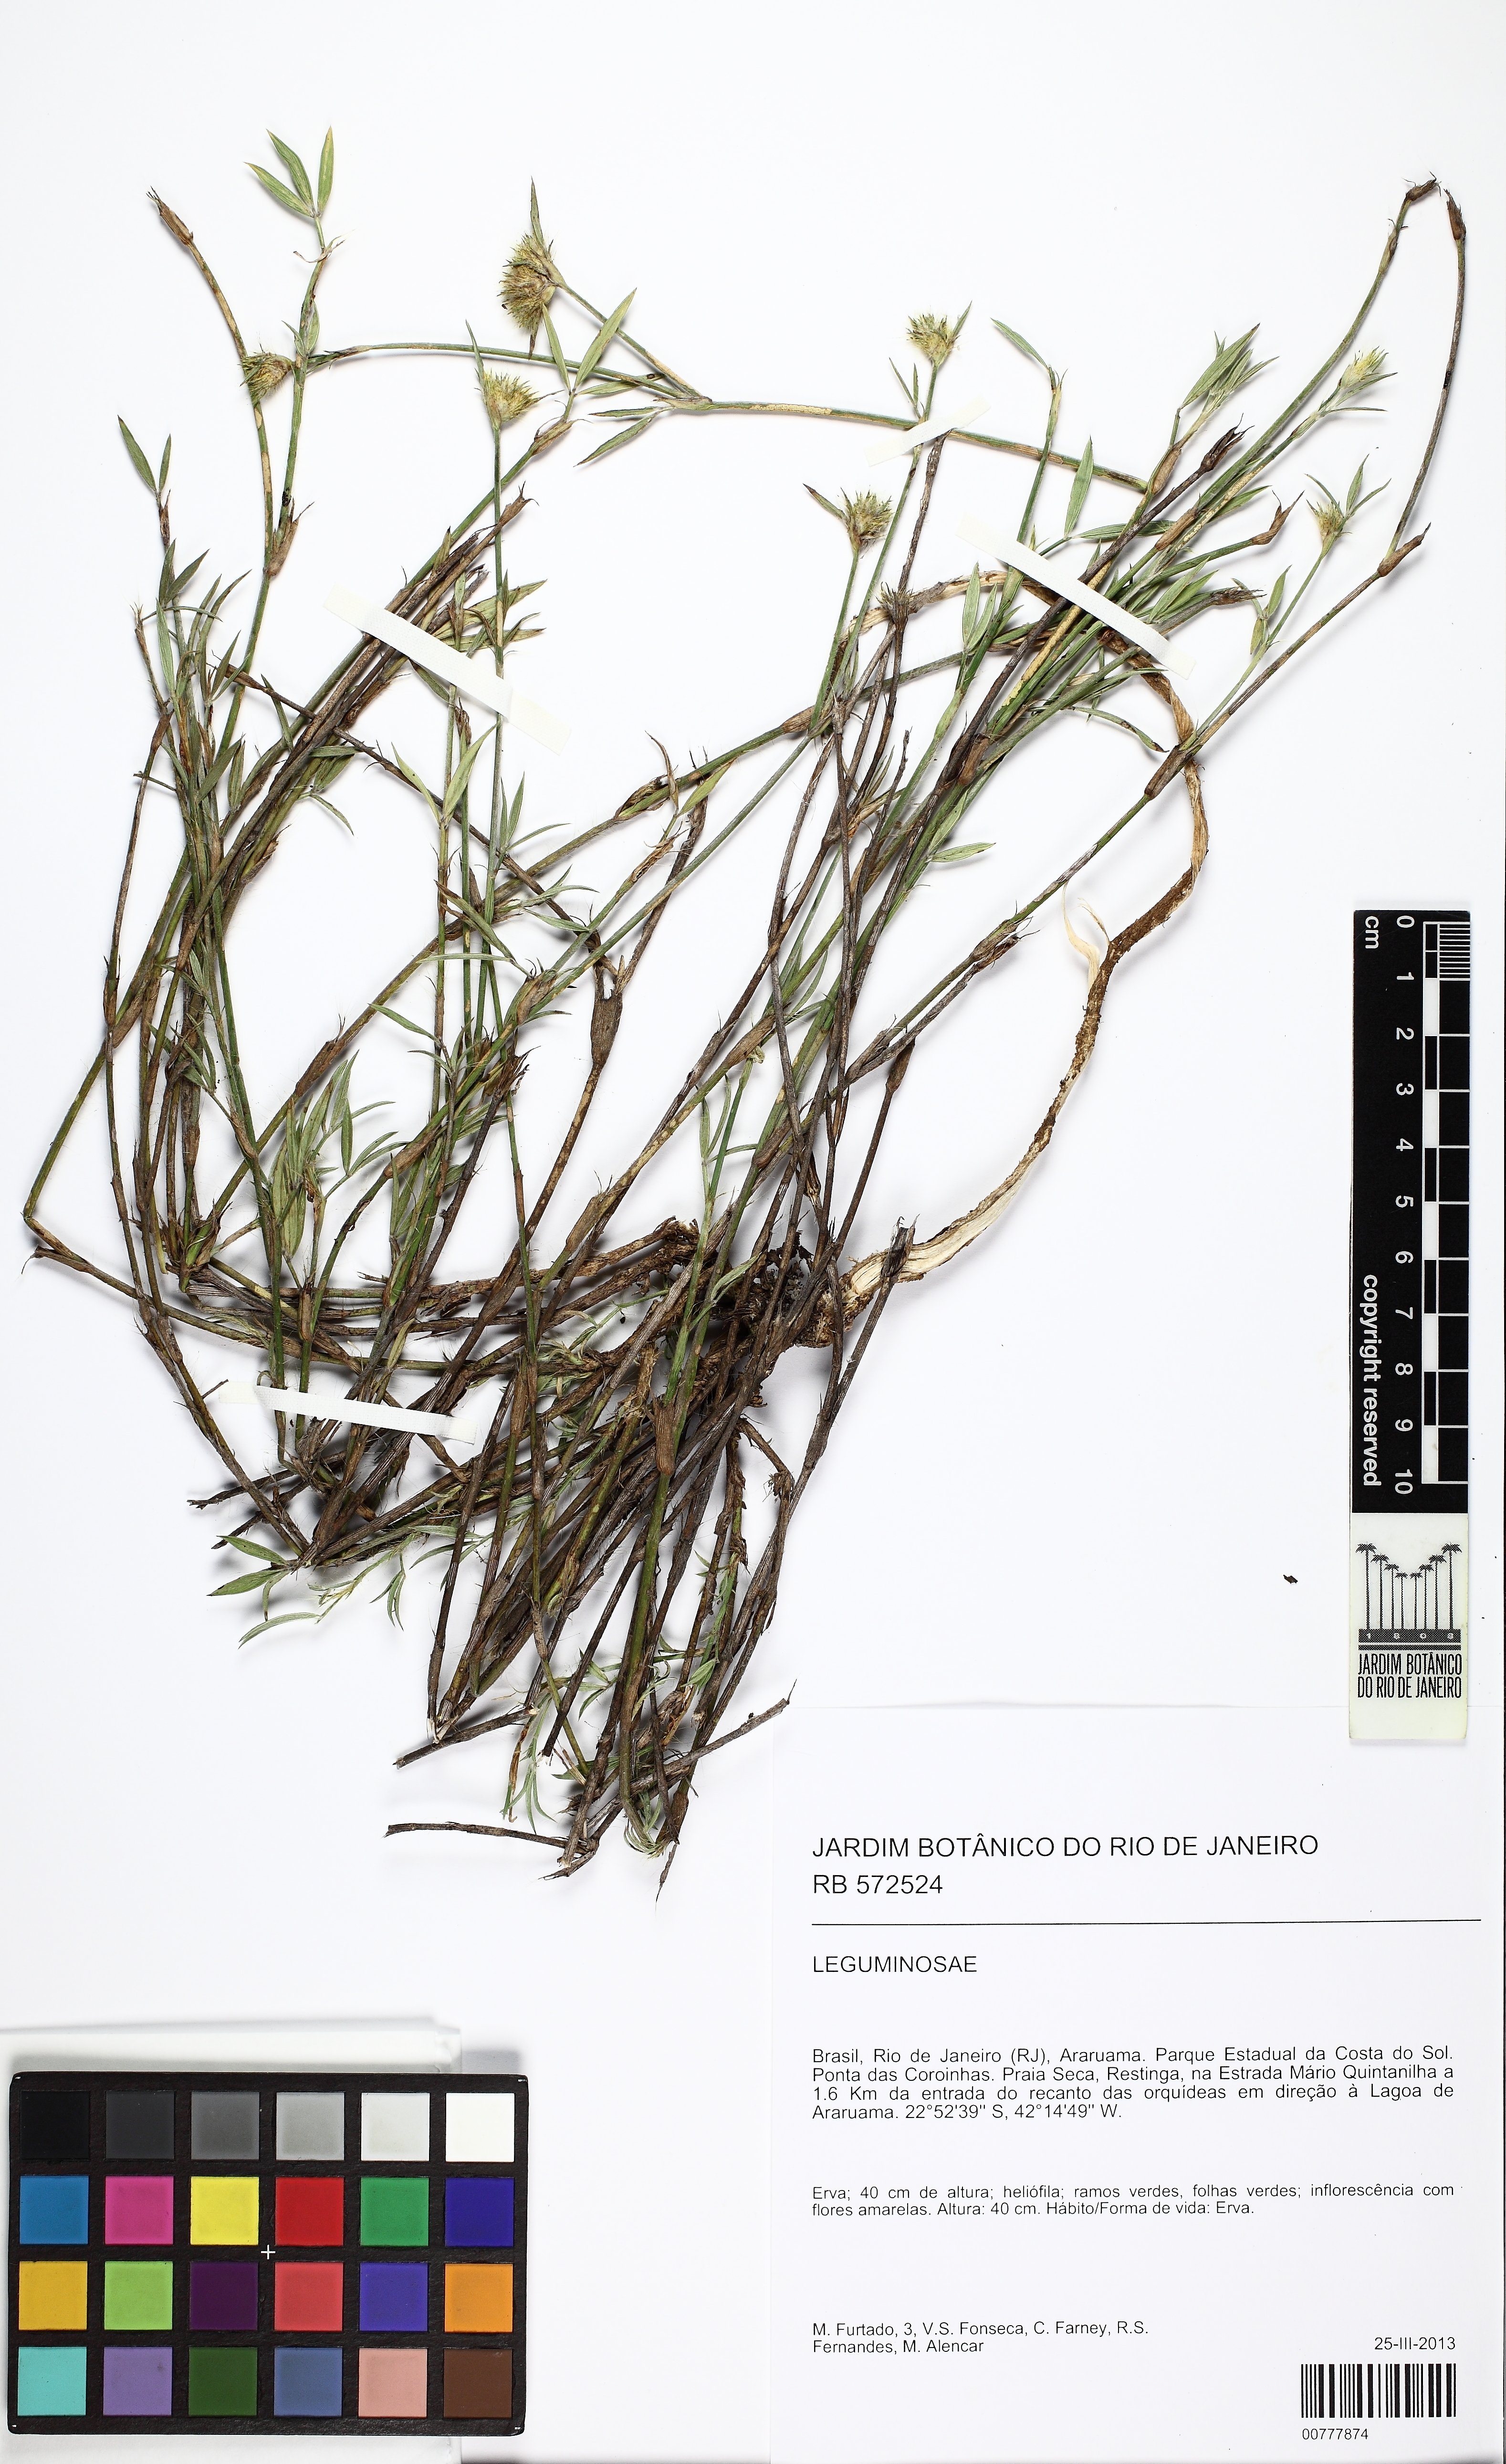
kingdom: Plantae
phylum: Tracheophyta
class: Magnoliopsida
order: Fabales
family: Fabaceae
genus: Stylosanthes
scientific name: Stylosanthes guianensis
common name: Pencil flower
